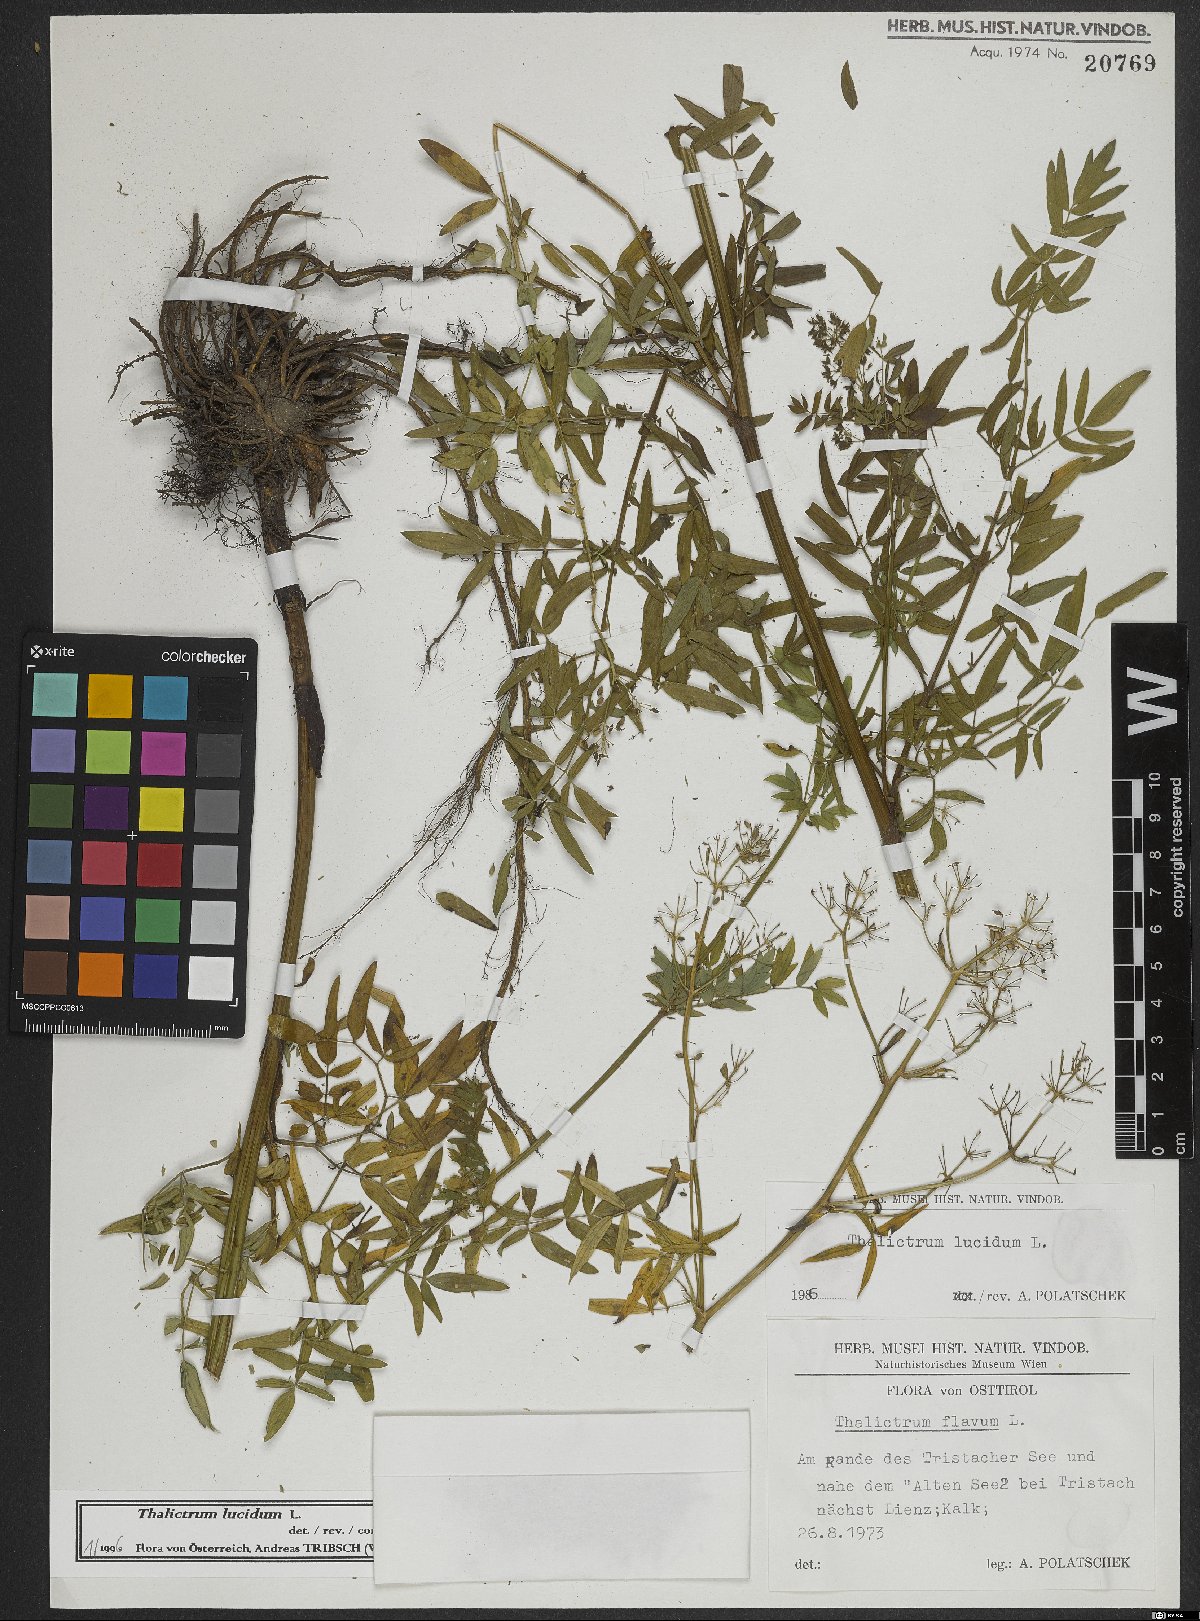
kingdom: Plantae
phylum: Tracheophyta
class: Magnoliopsida
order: Ranunculales
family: Ranunculaceae
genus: Thalictrum
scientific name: Thalictrum lucidum
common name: Shining meadow-rue
